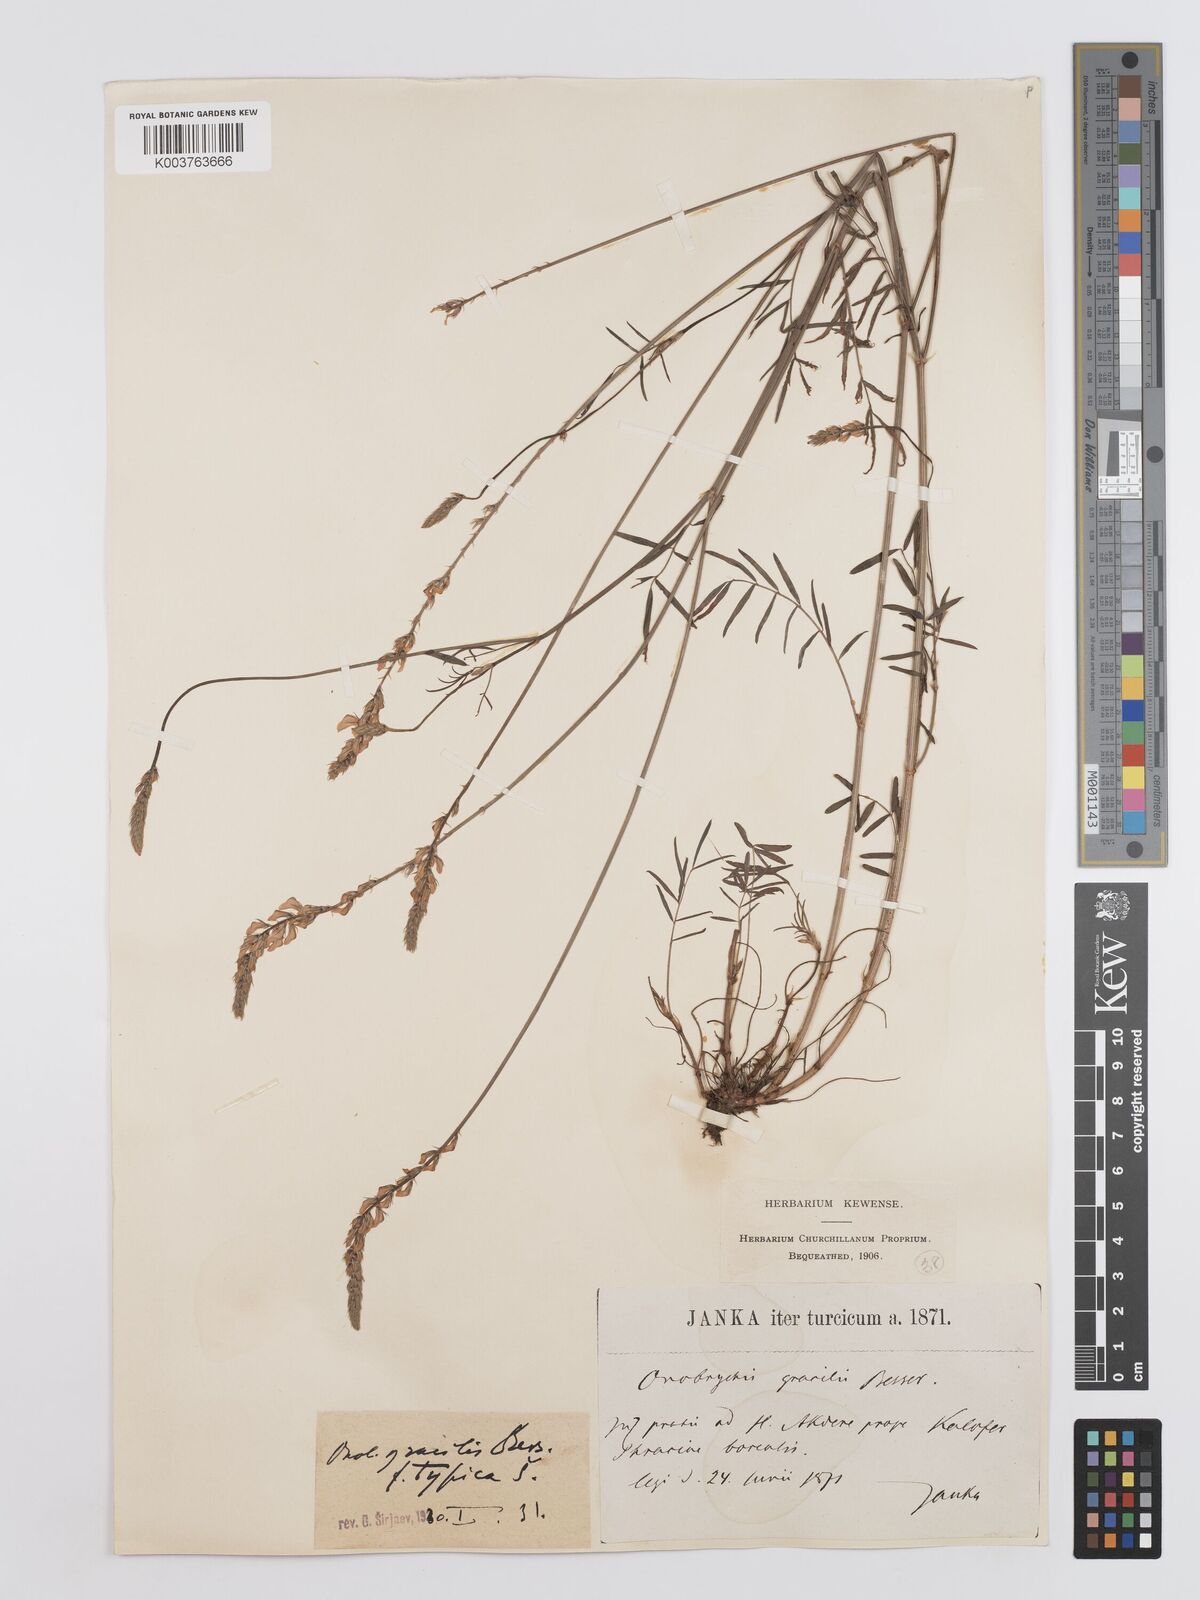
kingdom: Plantae
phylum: Tracheophyta
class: Magnoliopsida
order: Fabales
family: Fabaceae
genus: Onobrychis
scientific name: Onobrychis gracilis
